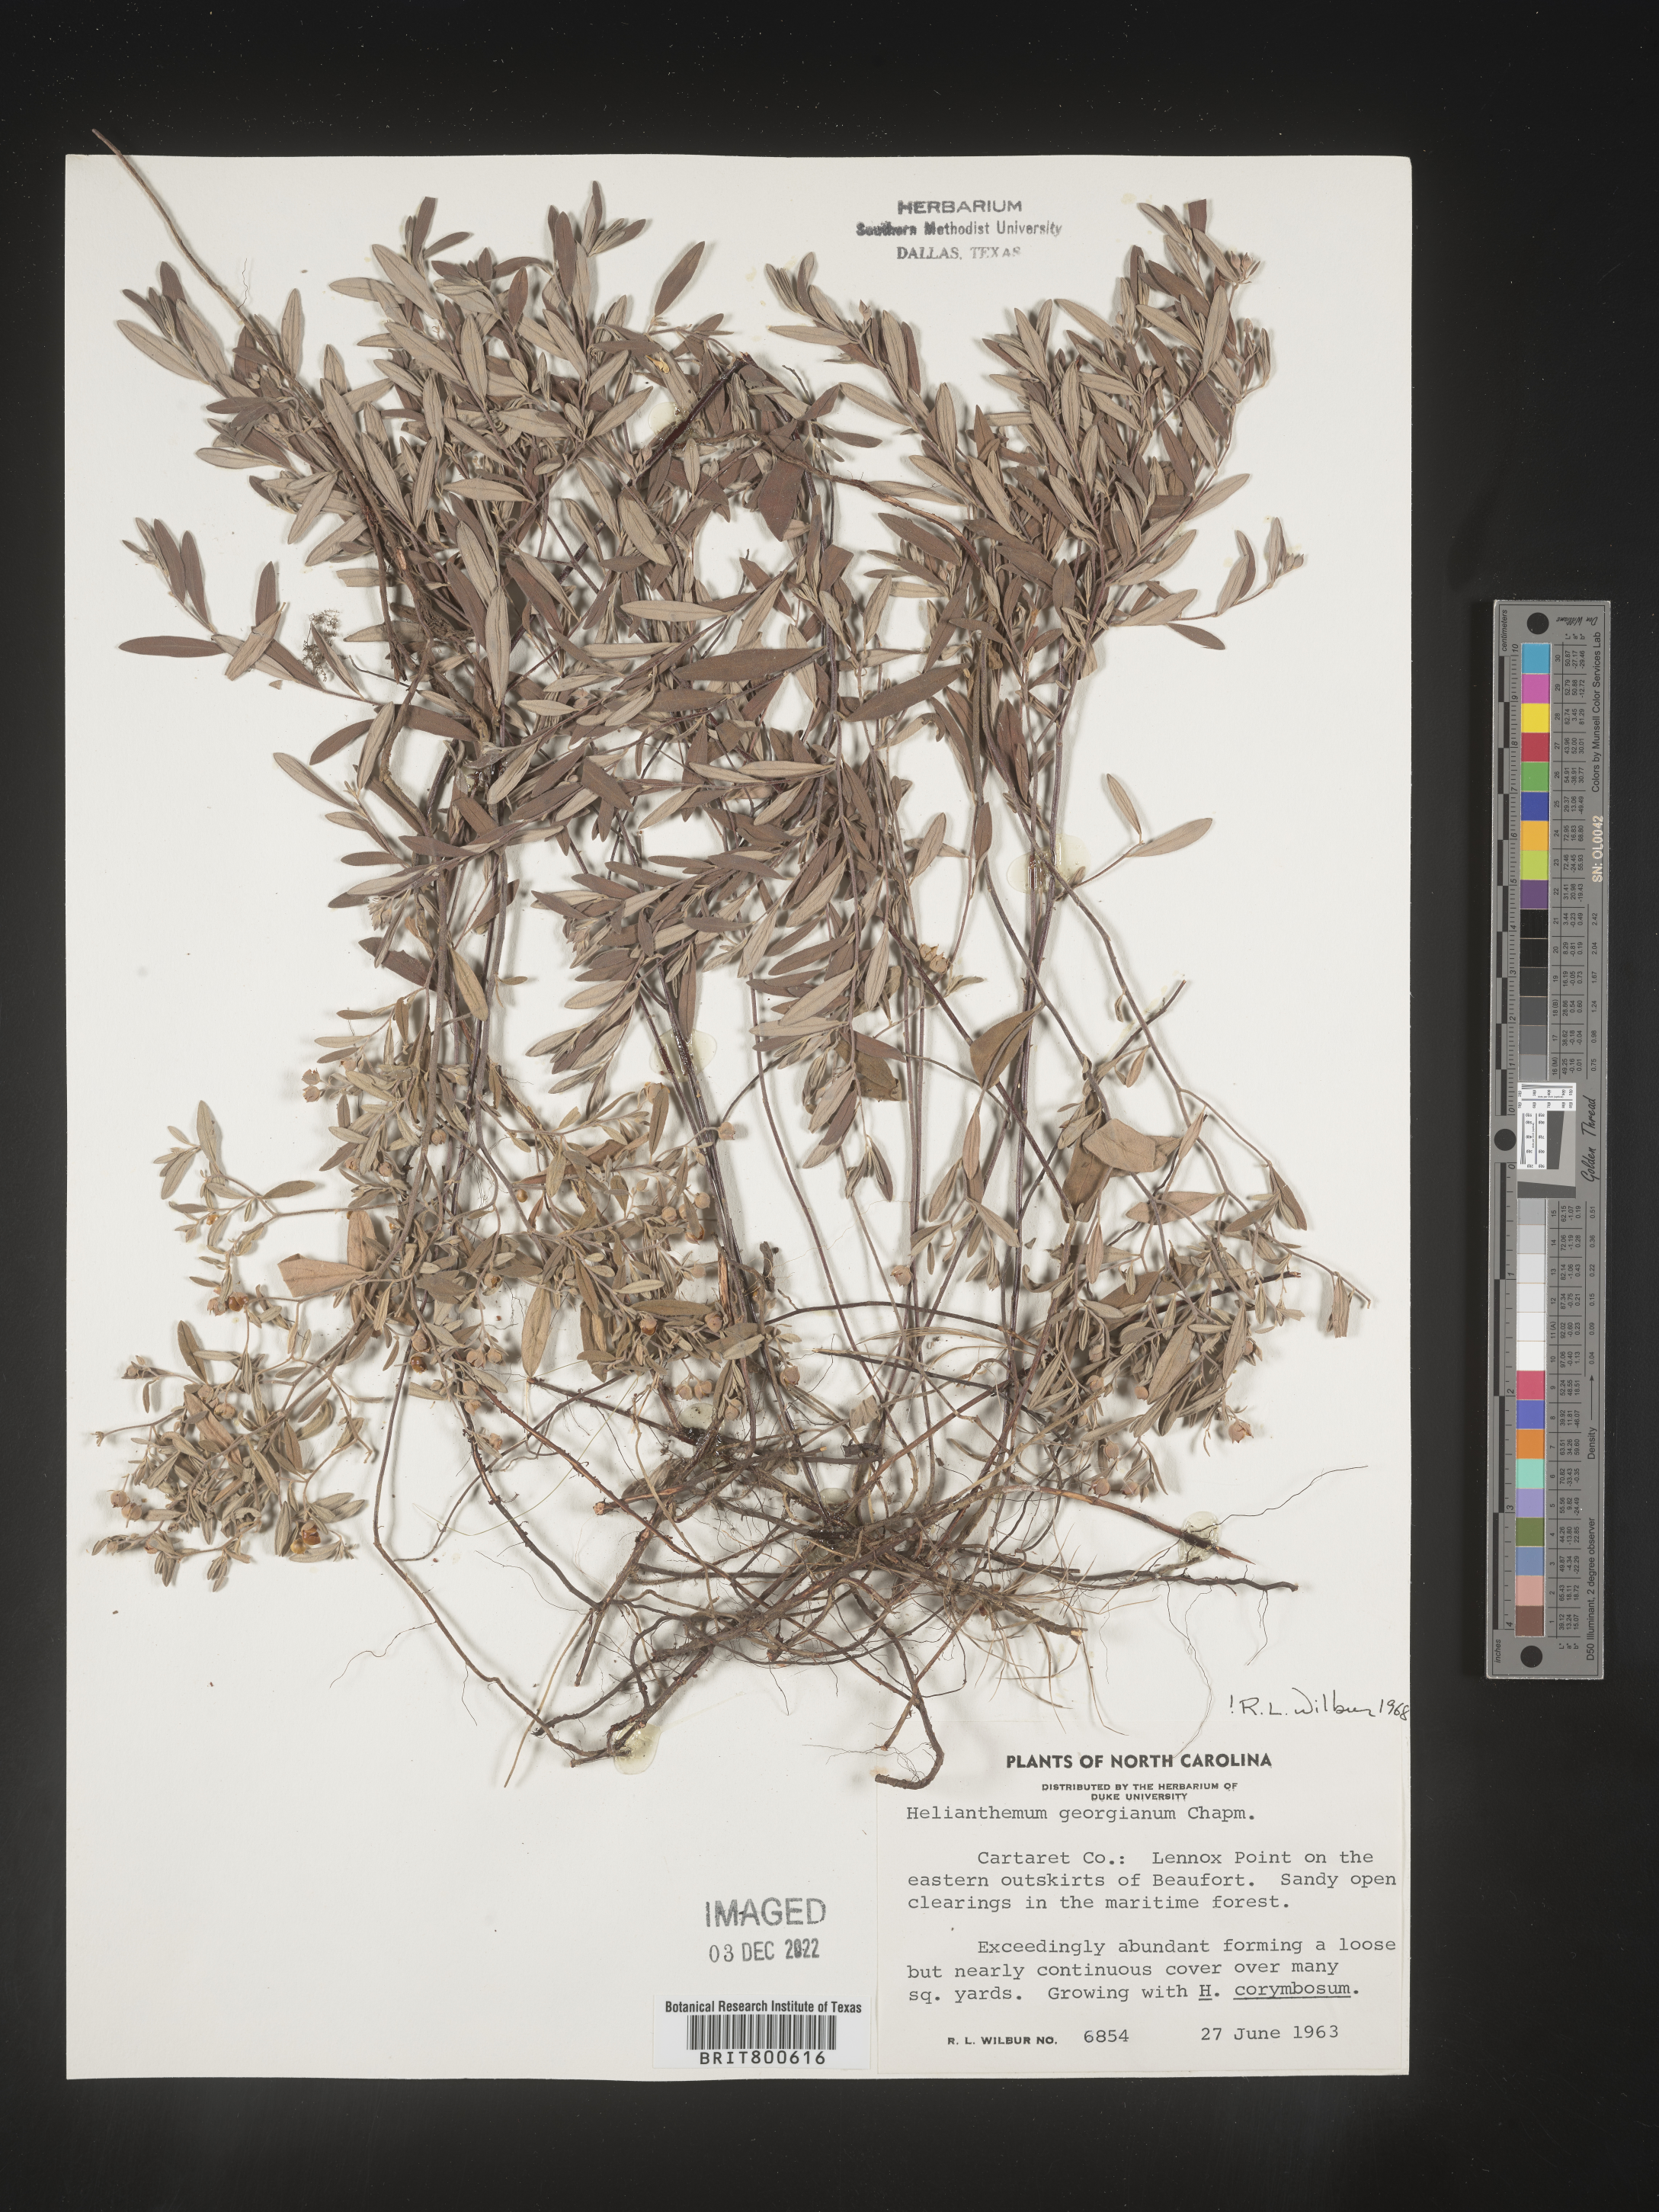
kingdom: Plantae
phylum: Tracheophyta
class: Magnoliopsida
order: Malvales
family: Cistaceae
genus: Crocanthemum
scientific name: Crocanthemum georgianum
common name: Georgia frostweed
